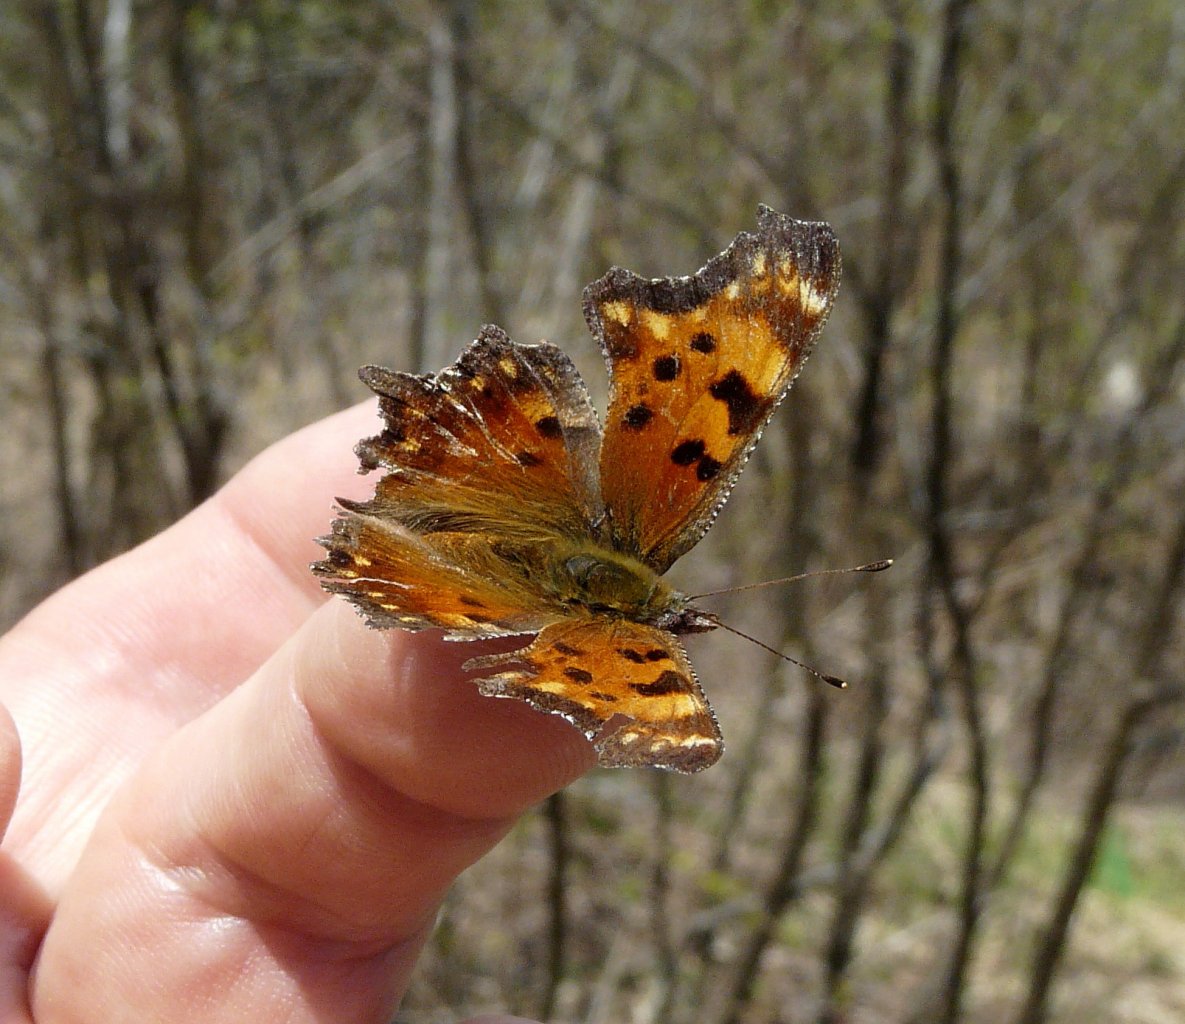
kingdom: Animalia
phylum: Arthropoda
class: Insecta
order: Lepidoptera
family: Nymphalidae
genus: Polygonia
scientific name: Polygonia gracilis
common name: Hoary Comma
